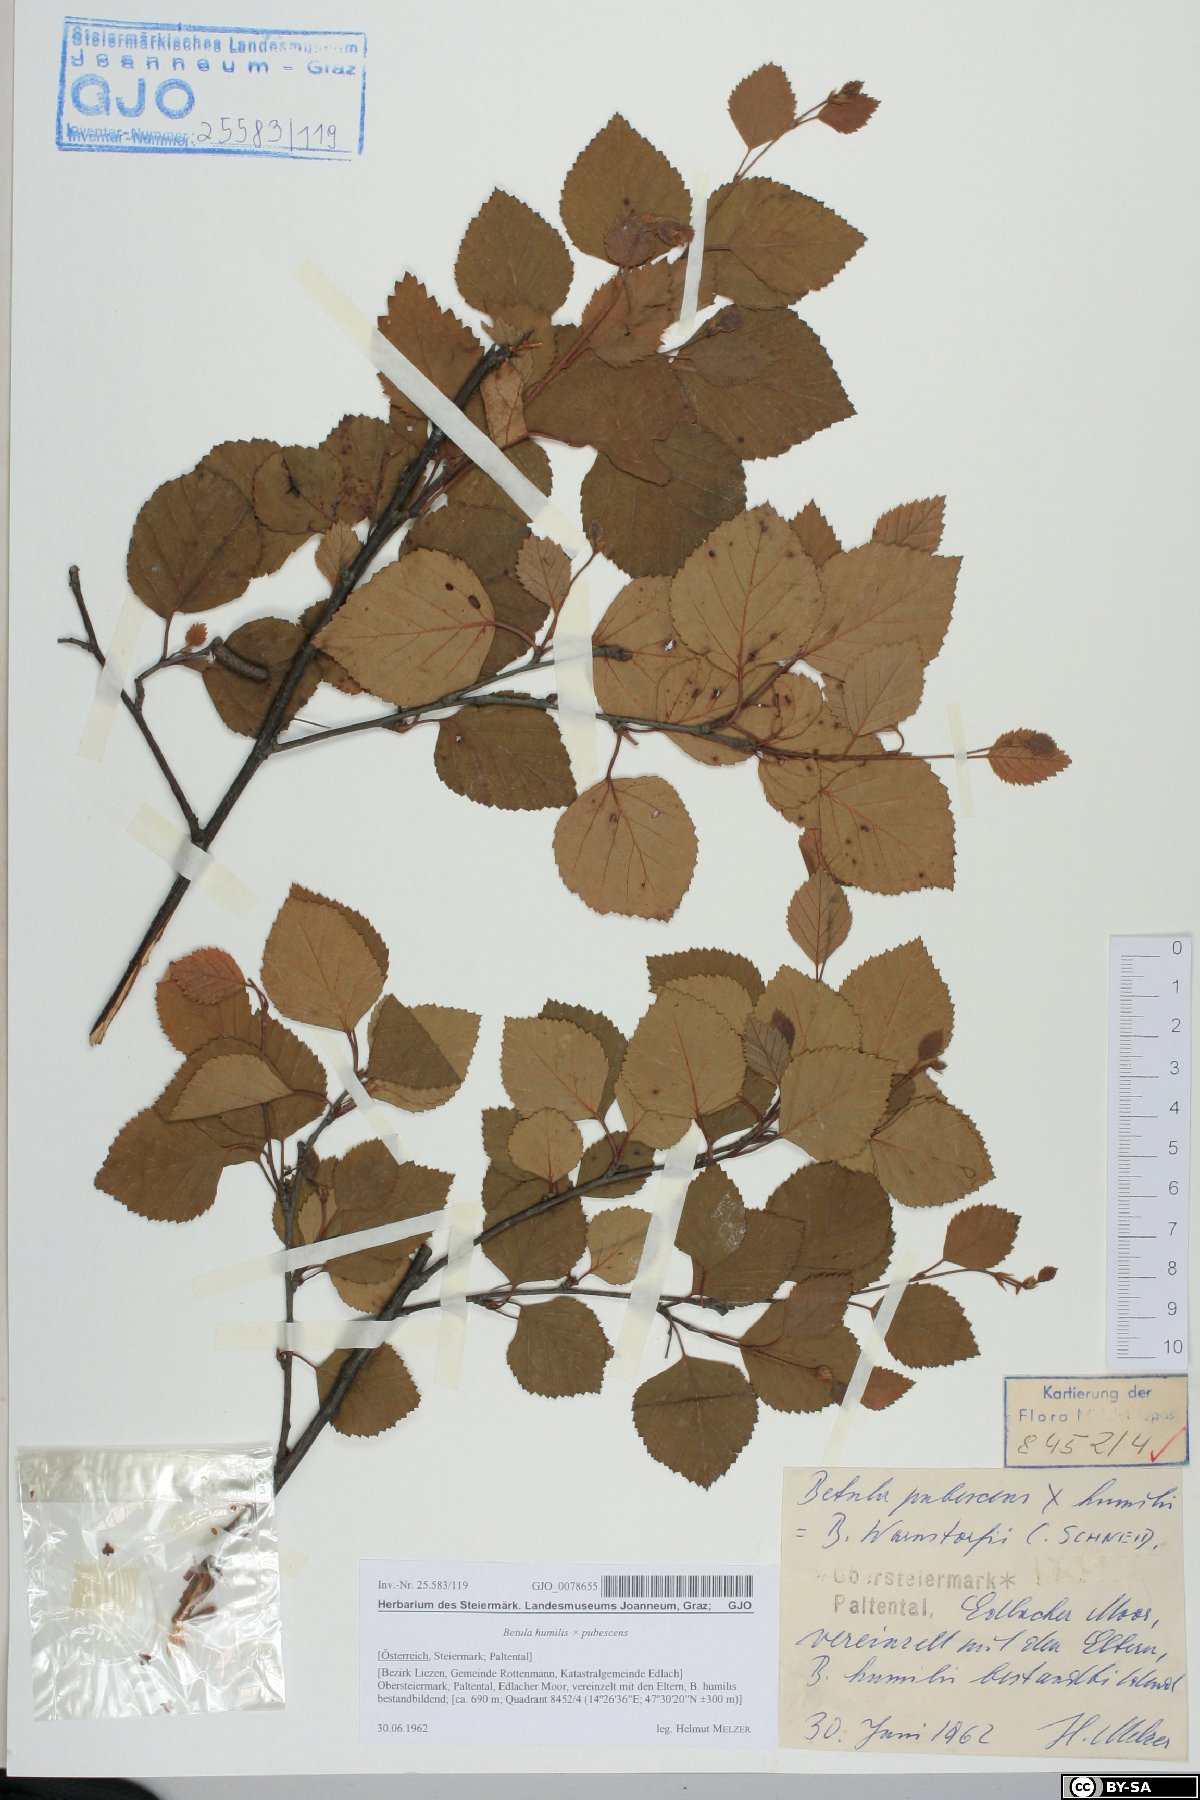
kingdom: Plantae
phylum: Tracheophyta
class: Magnoliopsida
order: Fagales
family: Betulaceae
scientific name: Betulaceae
